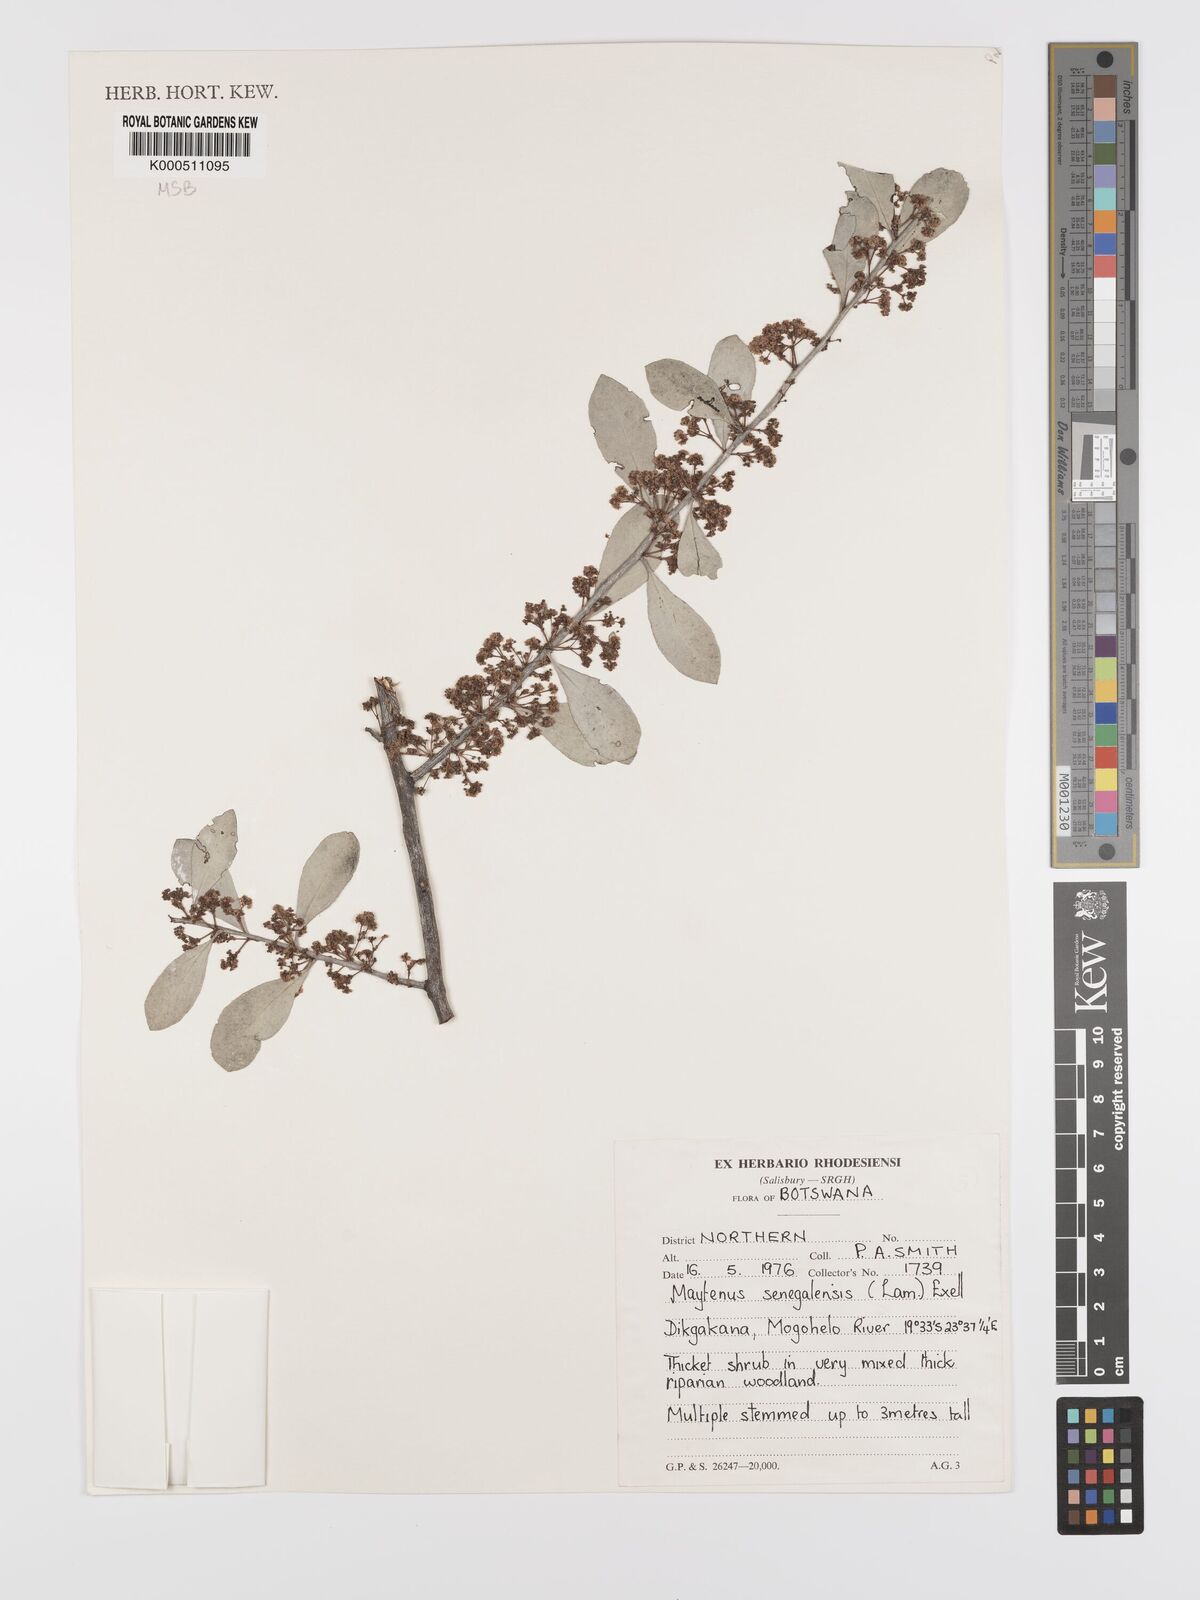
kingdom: Plantae
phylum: Tracheophyta
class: Magnoliopsida
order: Celastrales
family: Celastraceae
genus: Gymnosporia
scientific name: Gymnosporia senegalensis
